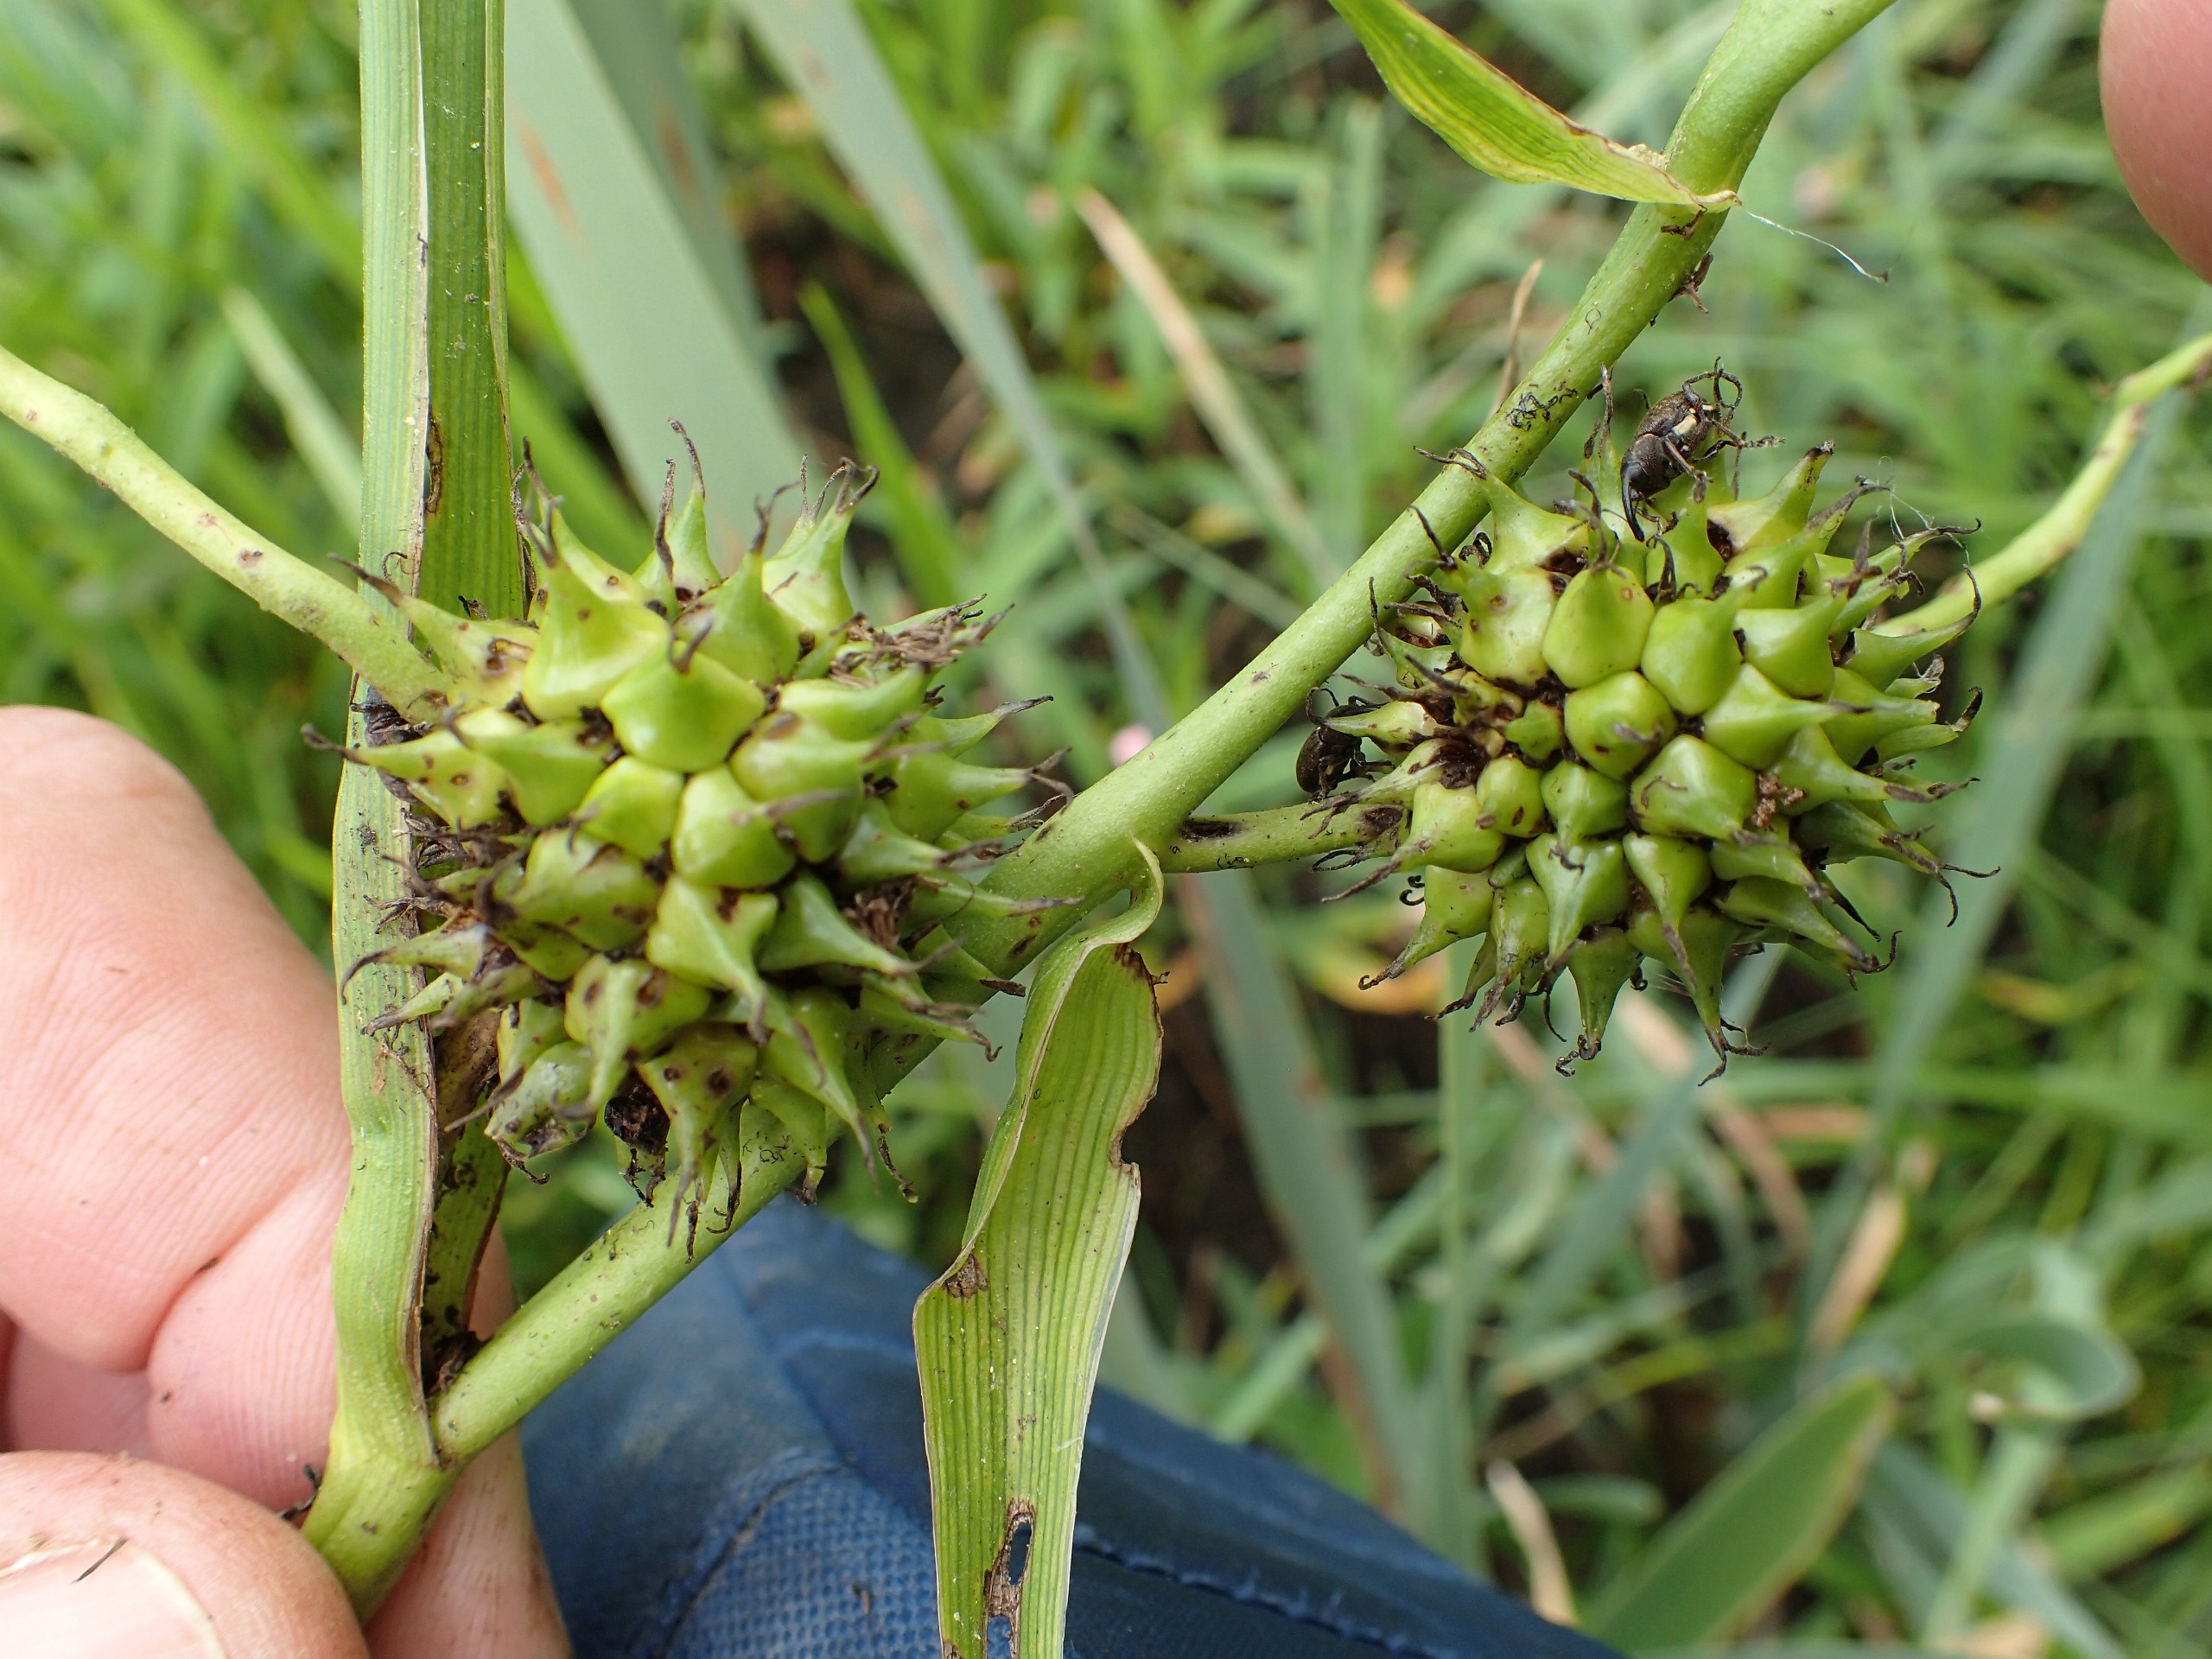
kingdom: Plantae
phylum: Tracheophyta
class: Liliopsida
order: Poales
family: Typhaceae
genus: Sparganium
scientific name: Sparganium erectum
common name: Småfrugtet pindsvineknop
